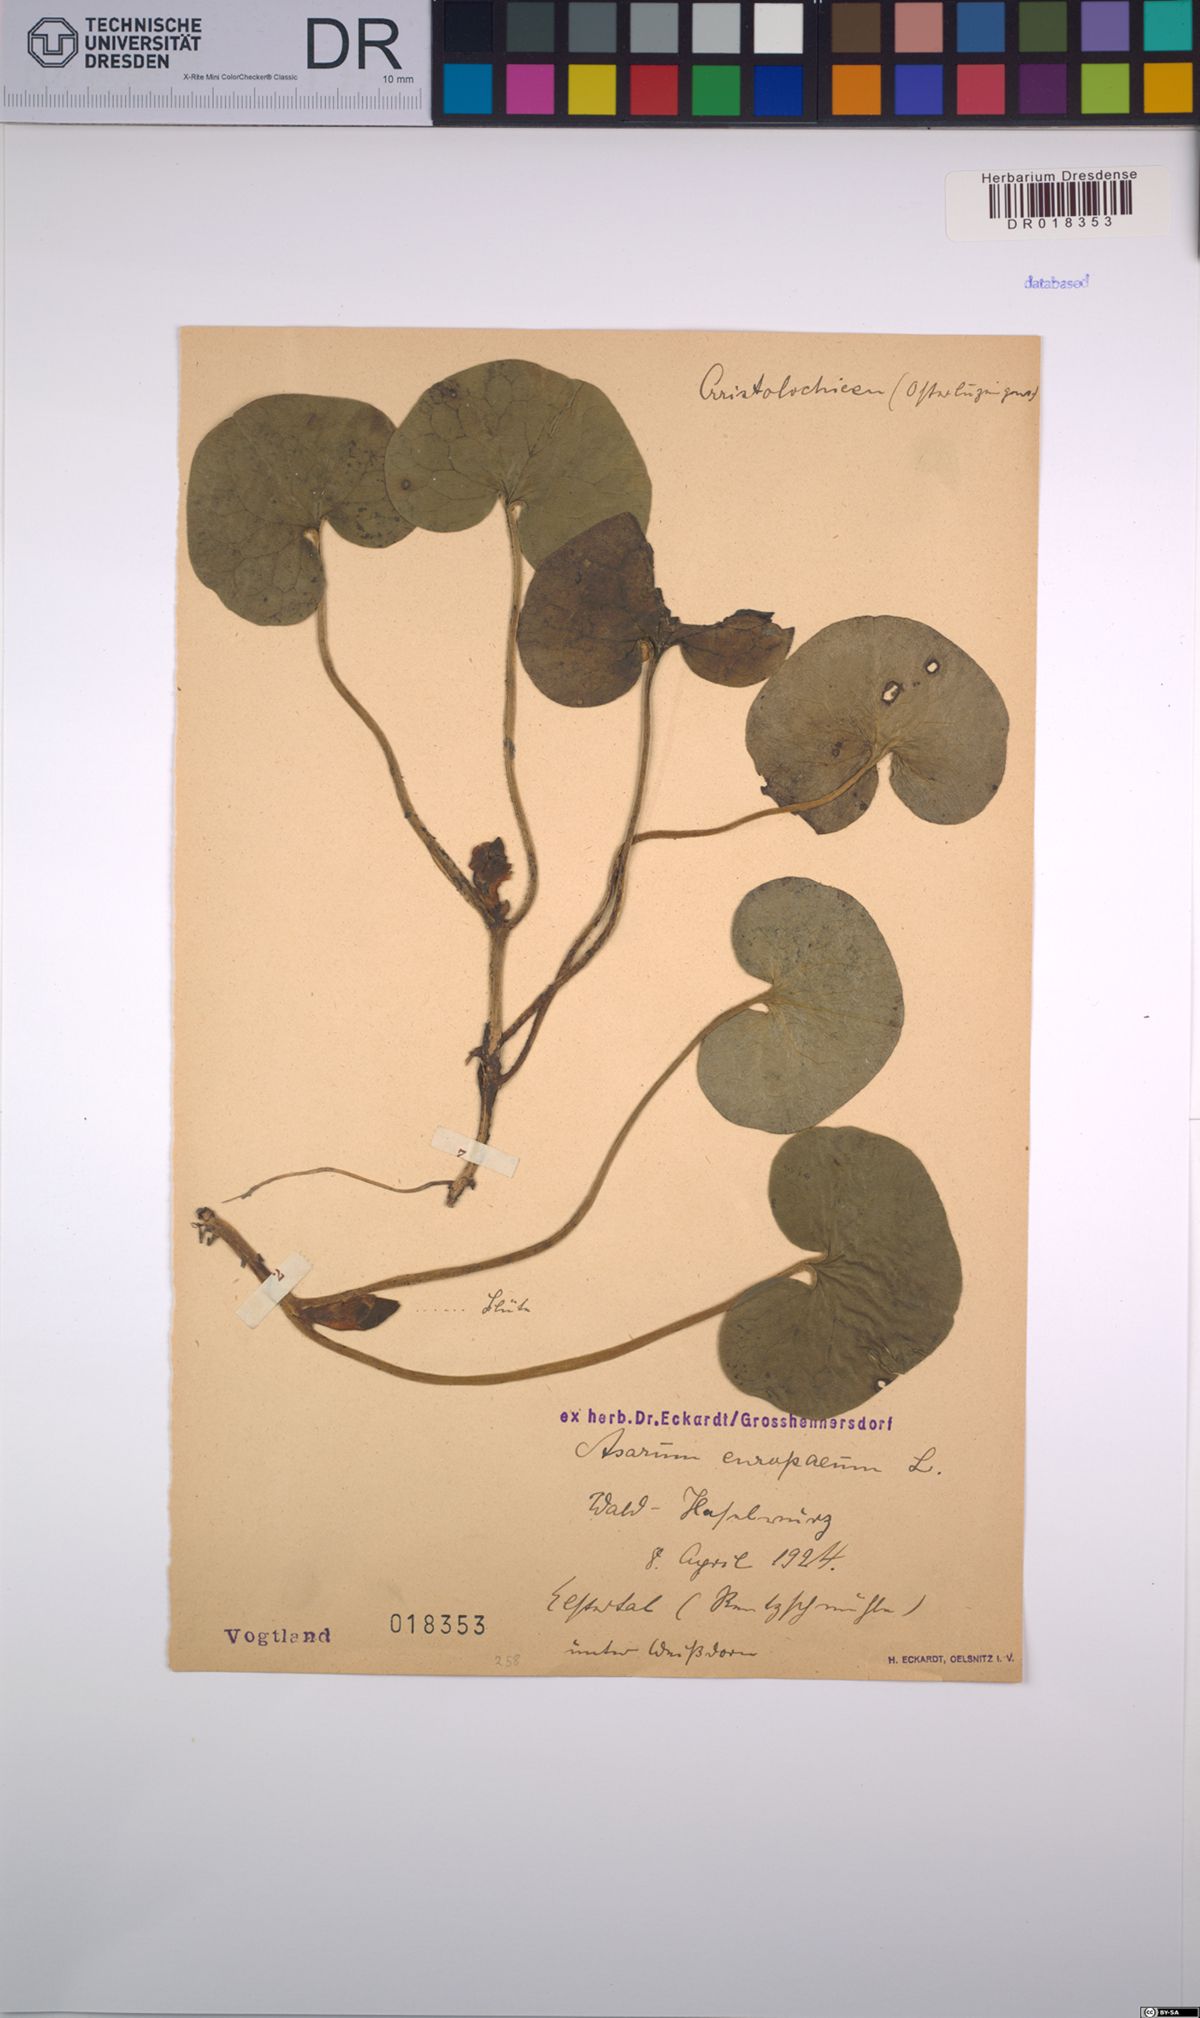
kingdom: Plantae
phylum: Tracheophyta
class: Magnoliopsida
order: Piperales
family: Aristolochiaceae
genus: Asarum
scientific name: Asarum europaeum
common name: Asarabacca
